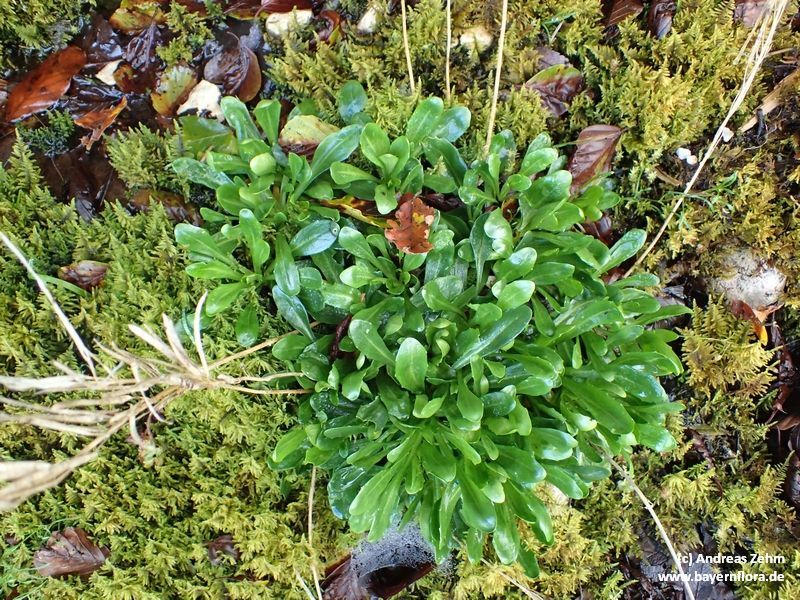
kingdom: Plantae
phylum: Tracheophyta
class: Magnoliopsida
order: Brassicales
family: Brassicaceae
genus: Arabis
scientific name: Arabis soyeri
